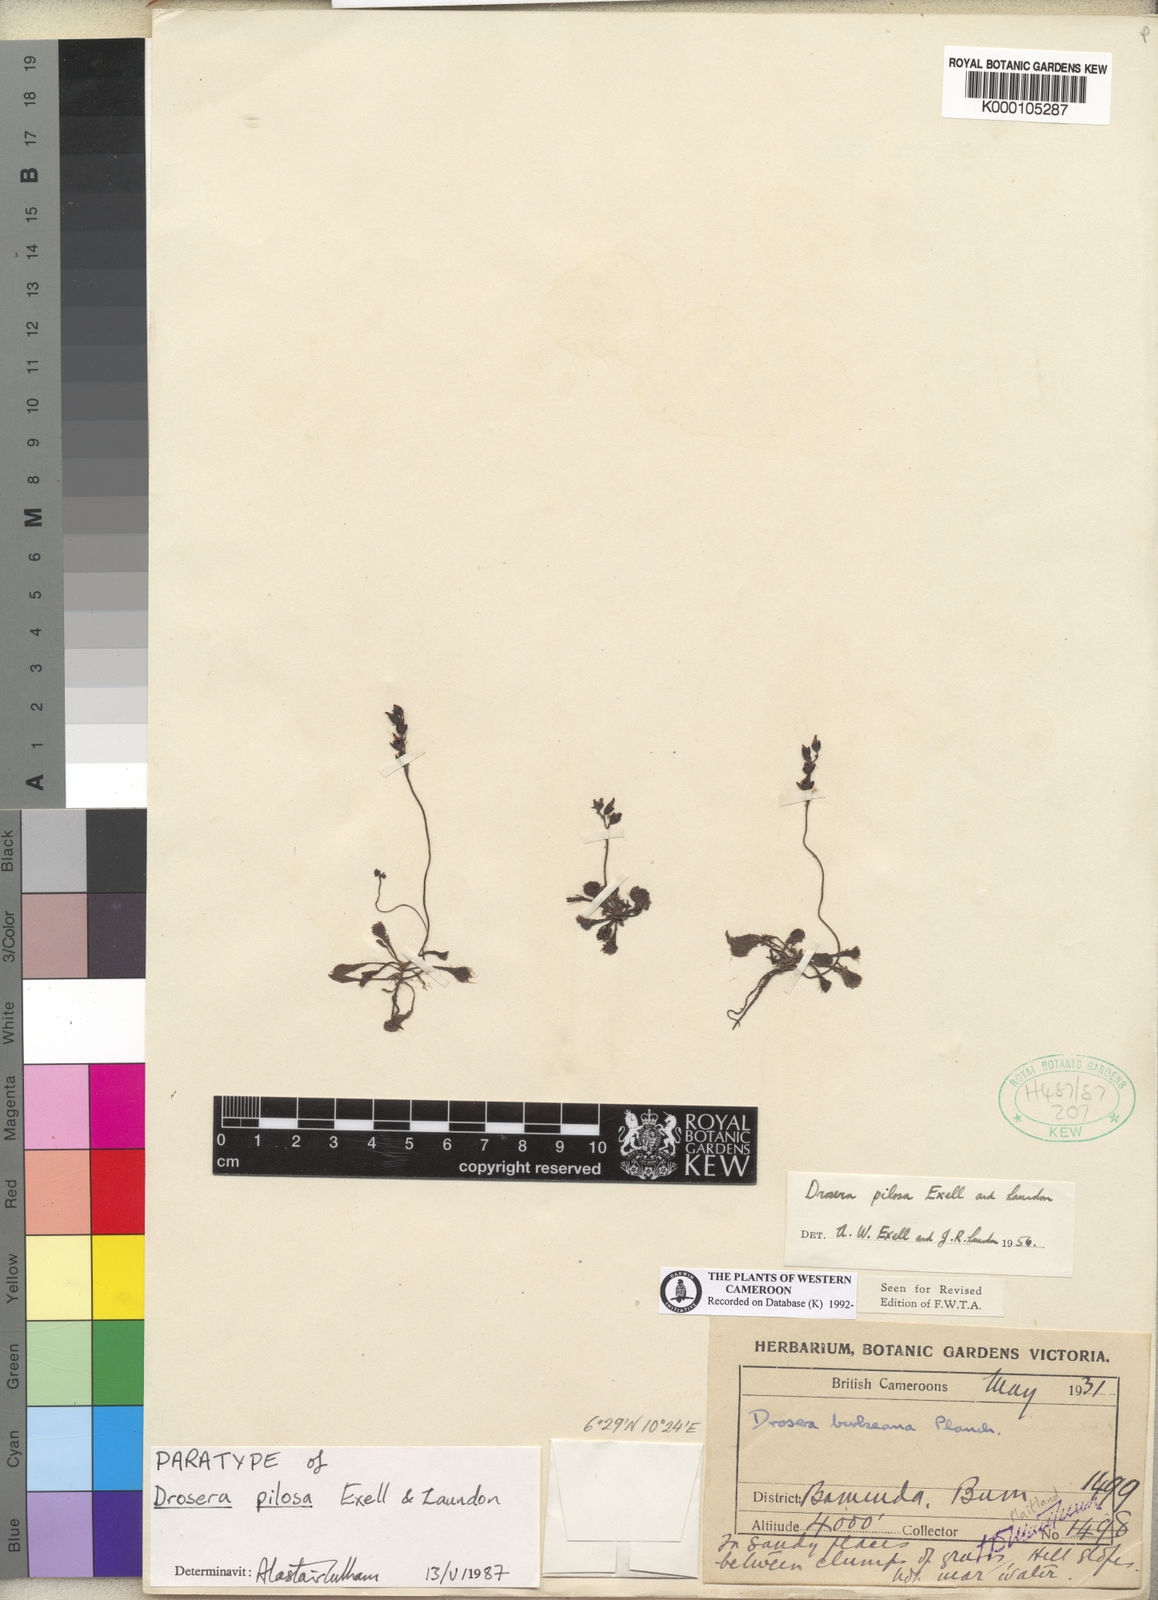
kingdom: Plantae
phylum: Tracheophyta
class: Magnoliopsida
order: Caryophyllales
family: Droseraceae
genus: Drosera
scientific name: Drosera pilosa
